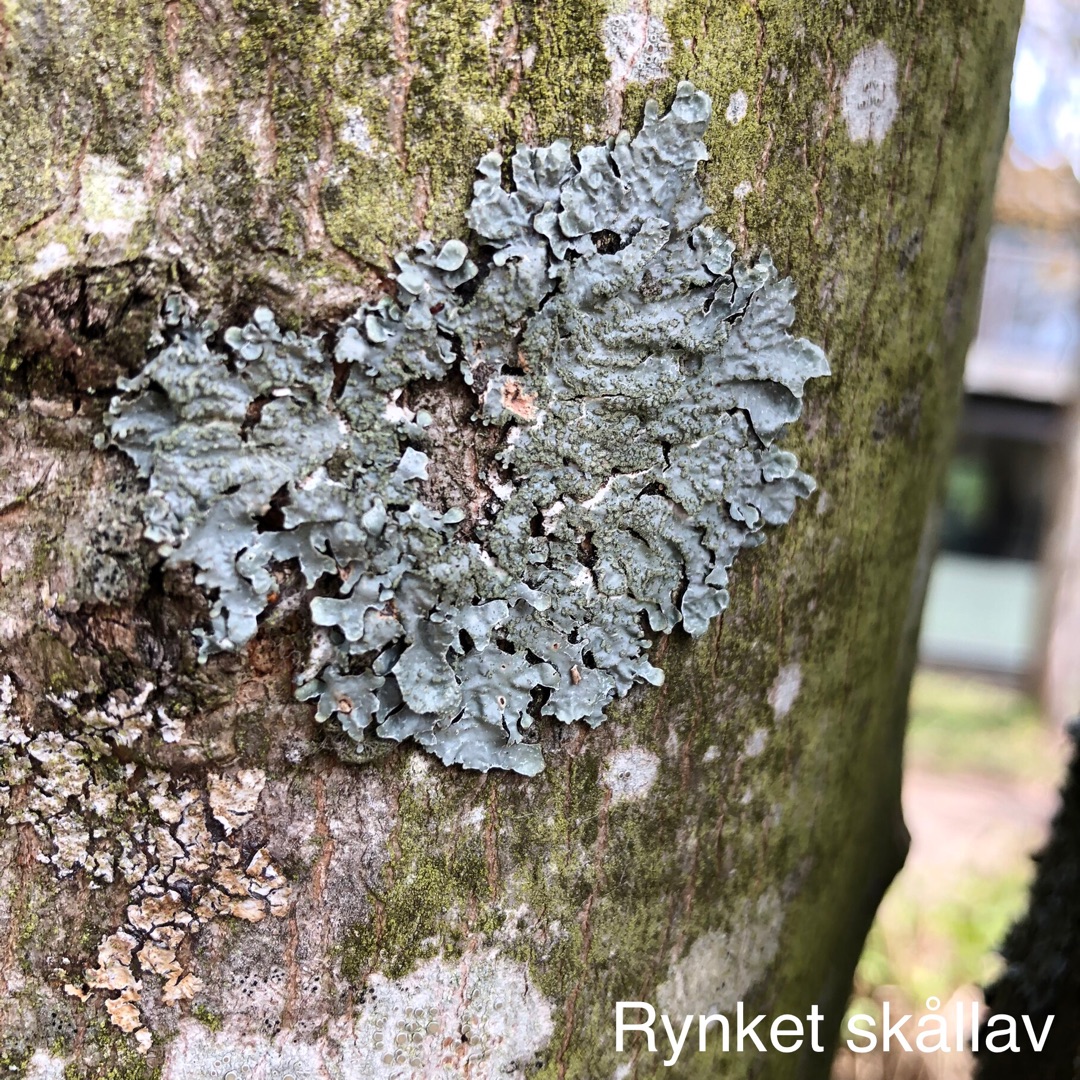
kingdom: Fungi
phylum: Ascomycota
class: Lecanoromycetes
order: Lecanorales
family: Parmeliaceae
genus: Parmelia
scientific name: Parmelia sulcata
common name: Rynket skållav
